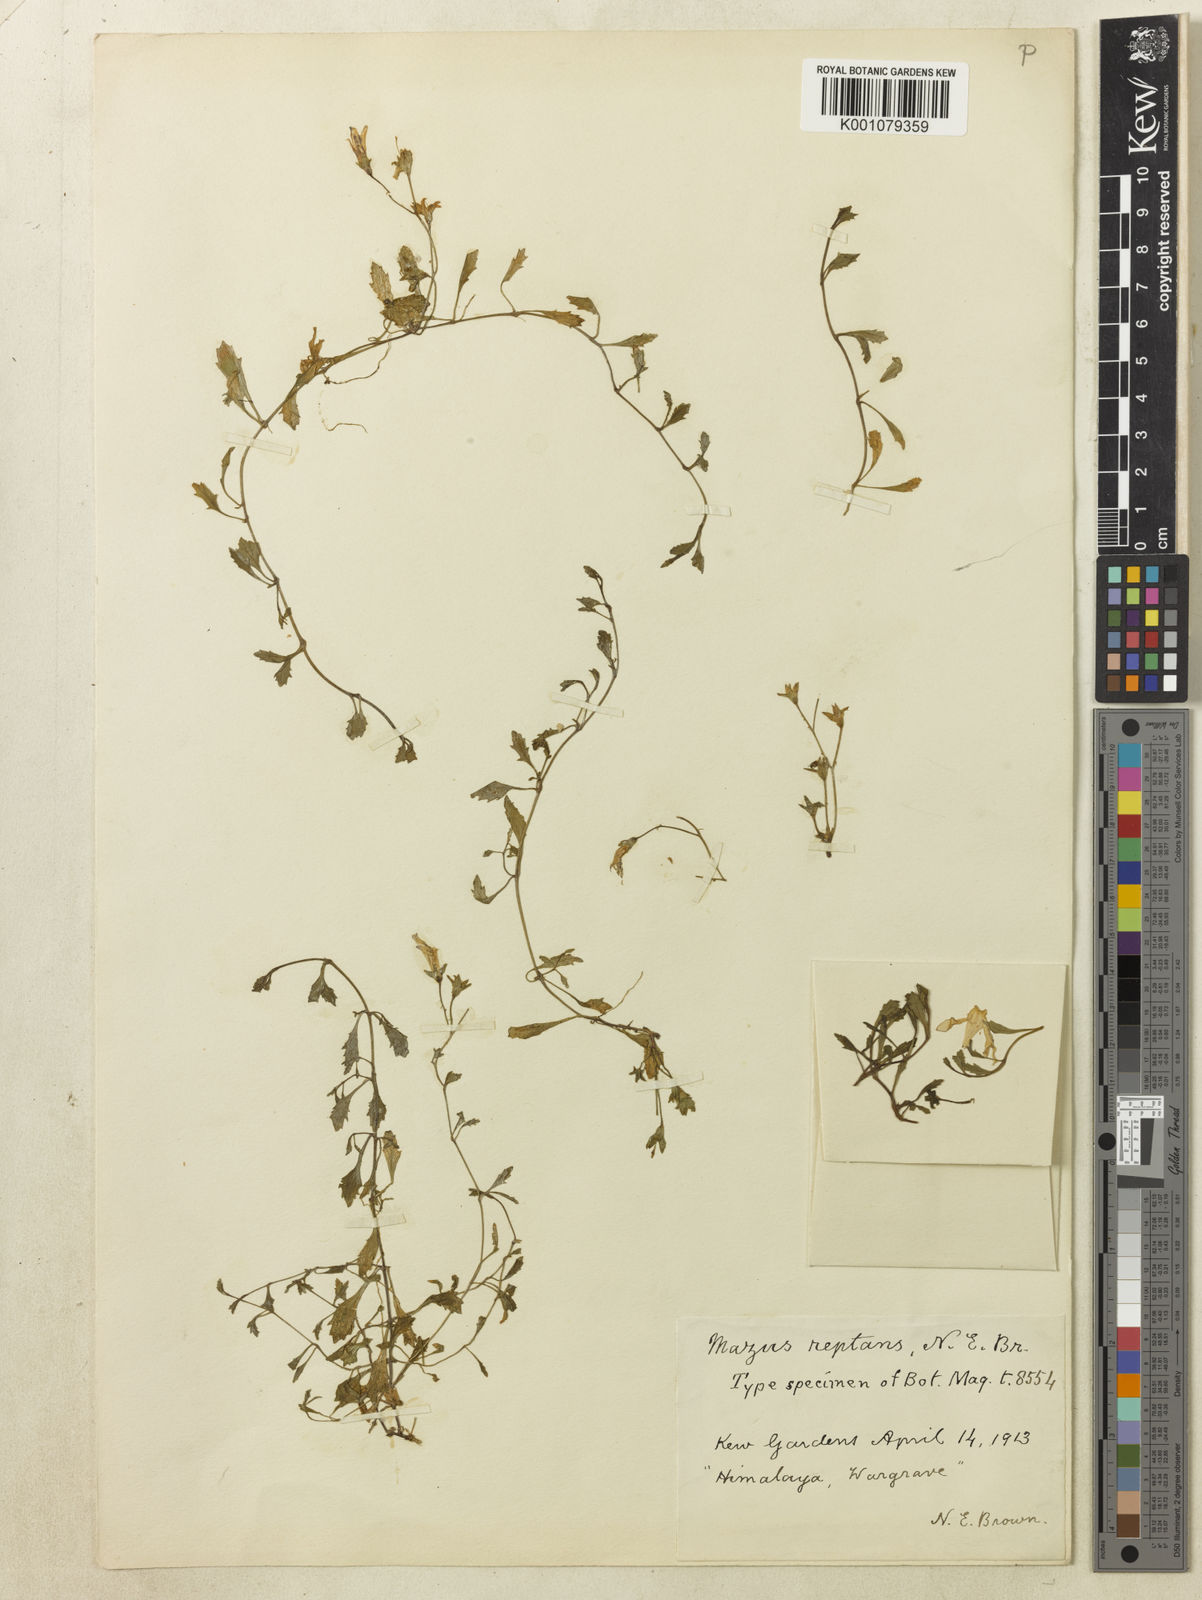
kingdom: Plantae
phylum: Tracheophyta
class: Magnoliopsida
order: Lamiales
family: Mazaceae
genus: Mazus
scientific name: Mazus miquelii
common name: Miquel's mazus
